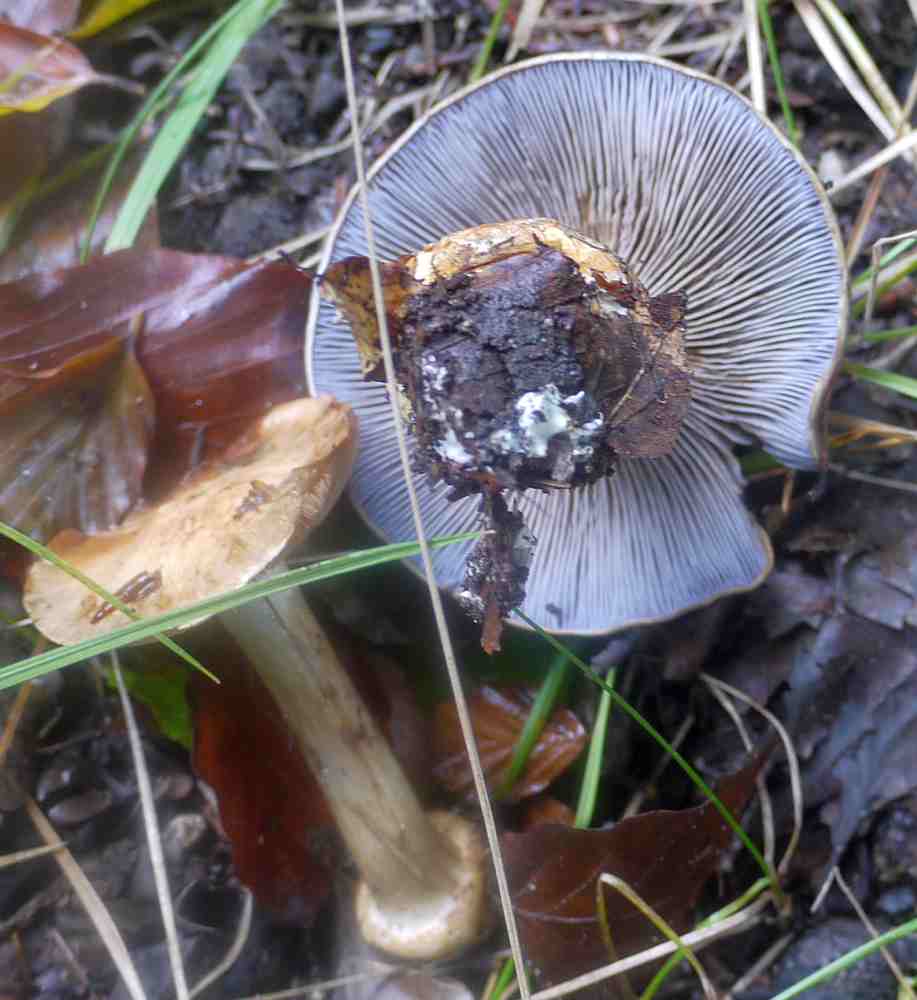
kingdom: Fungi
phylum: Basidiomycota
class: Agaricomycetes
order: Agaricales
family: Cortinariaceae
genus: Phlegmacium
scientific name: Phlegmacium luhmannii
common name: musegrå slørhat
